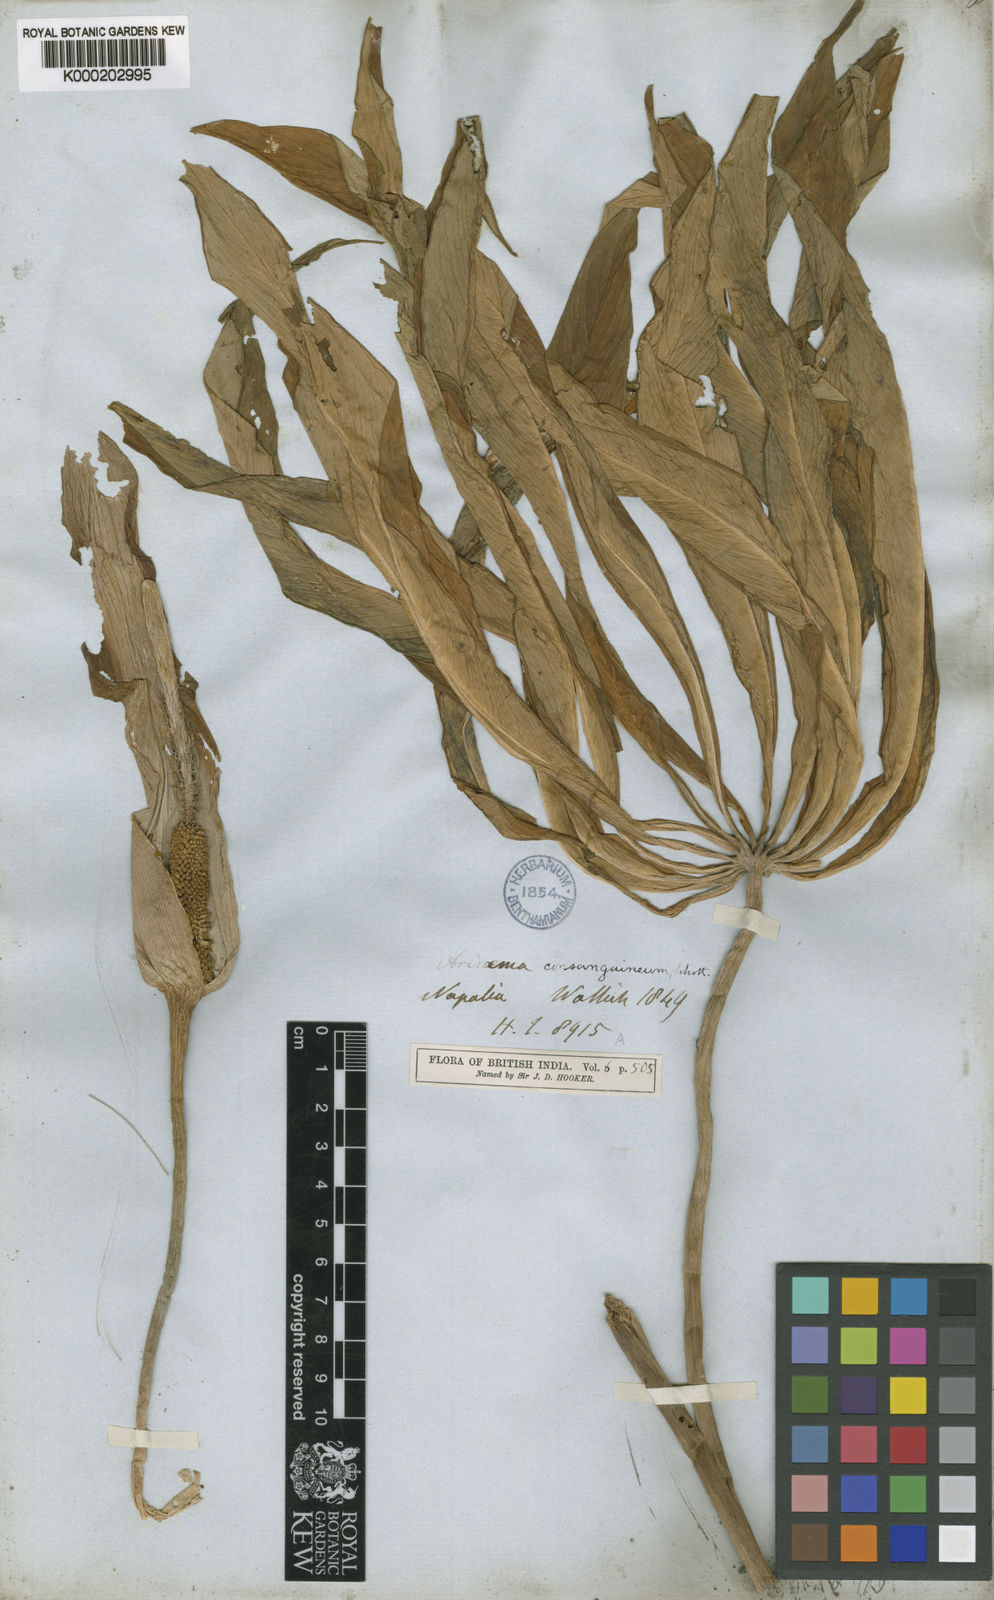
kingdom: Plantae
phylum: Tracheophyta
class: Liliopsida
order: Alismatales
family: Araceae
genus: Arisaema
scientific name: Arisaema erubescens
